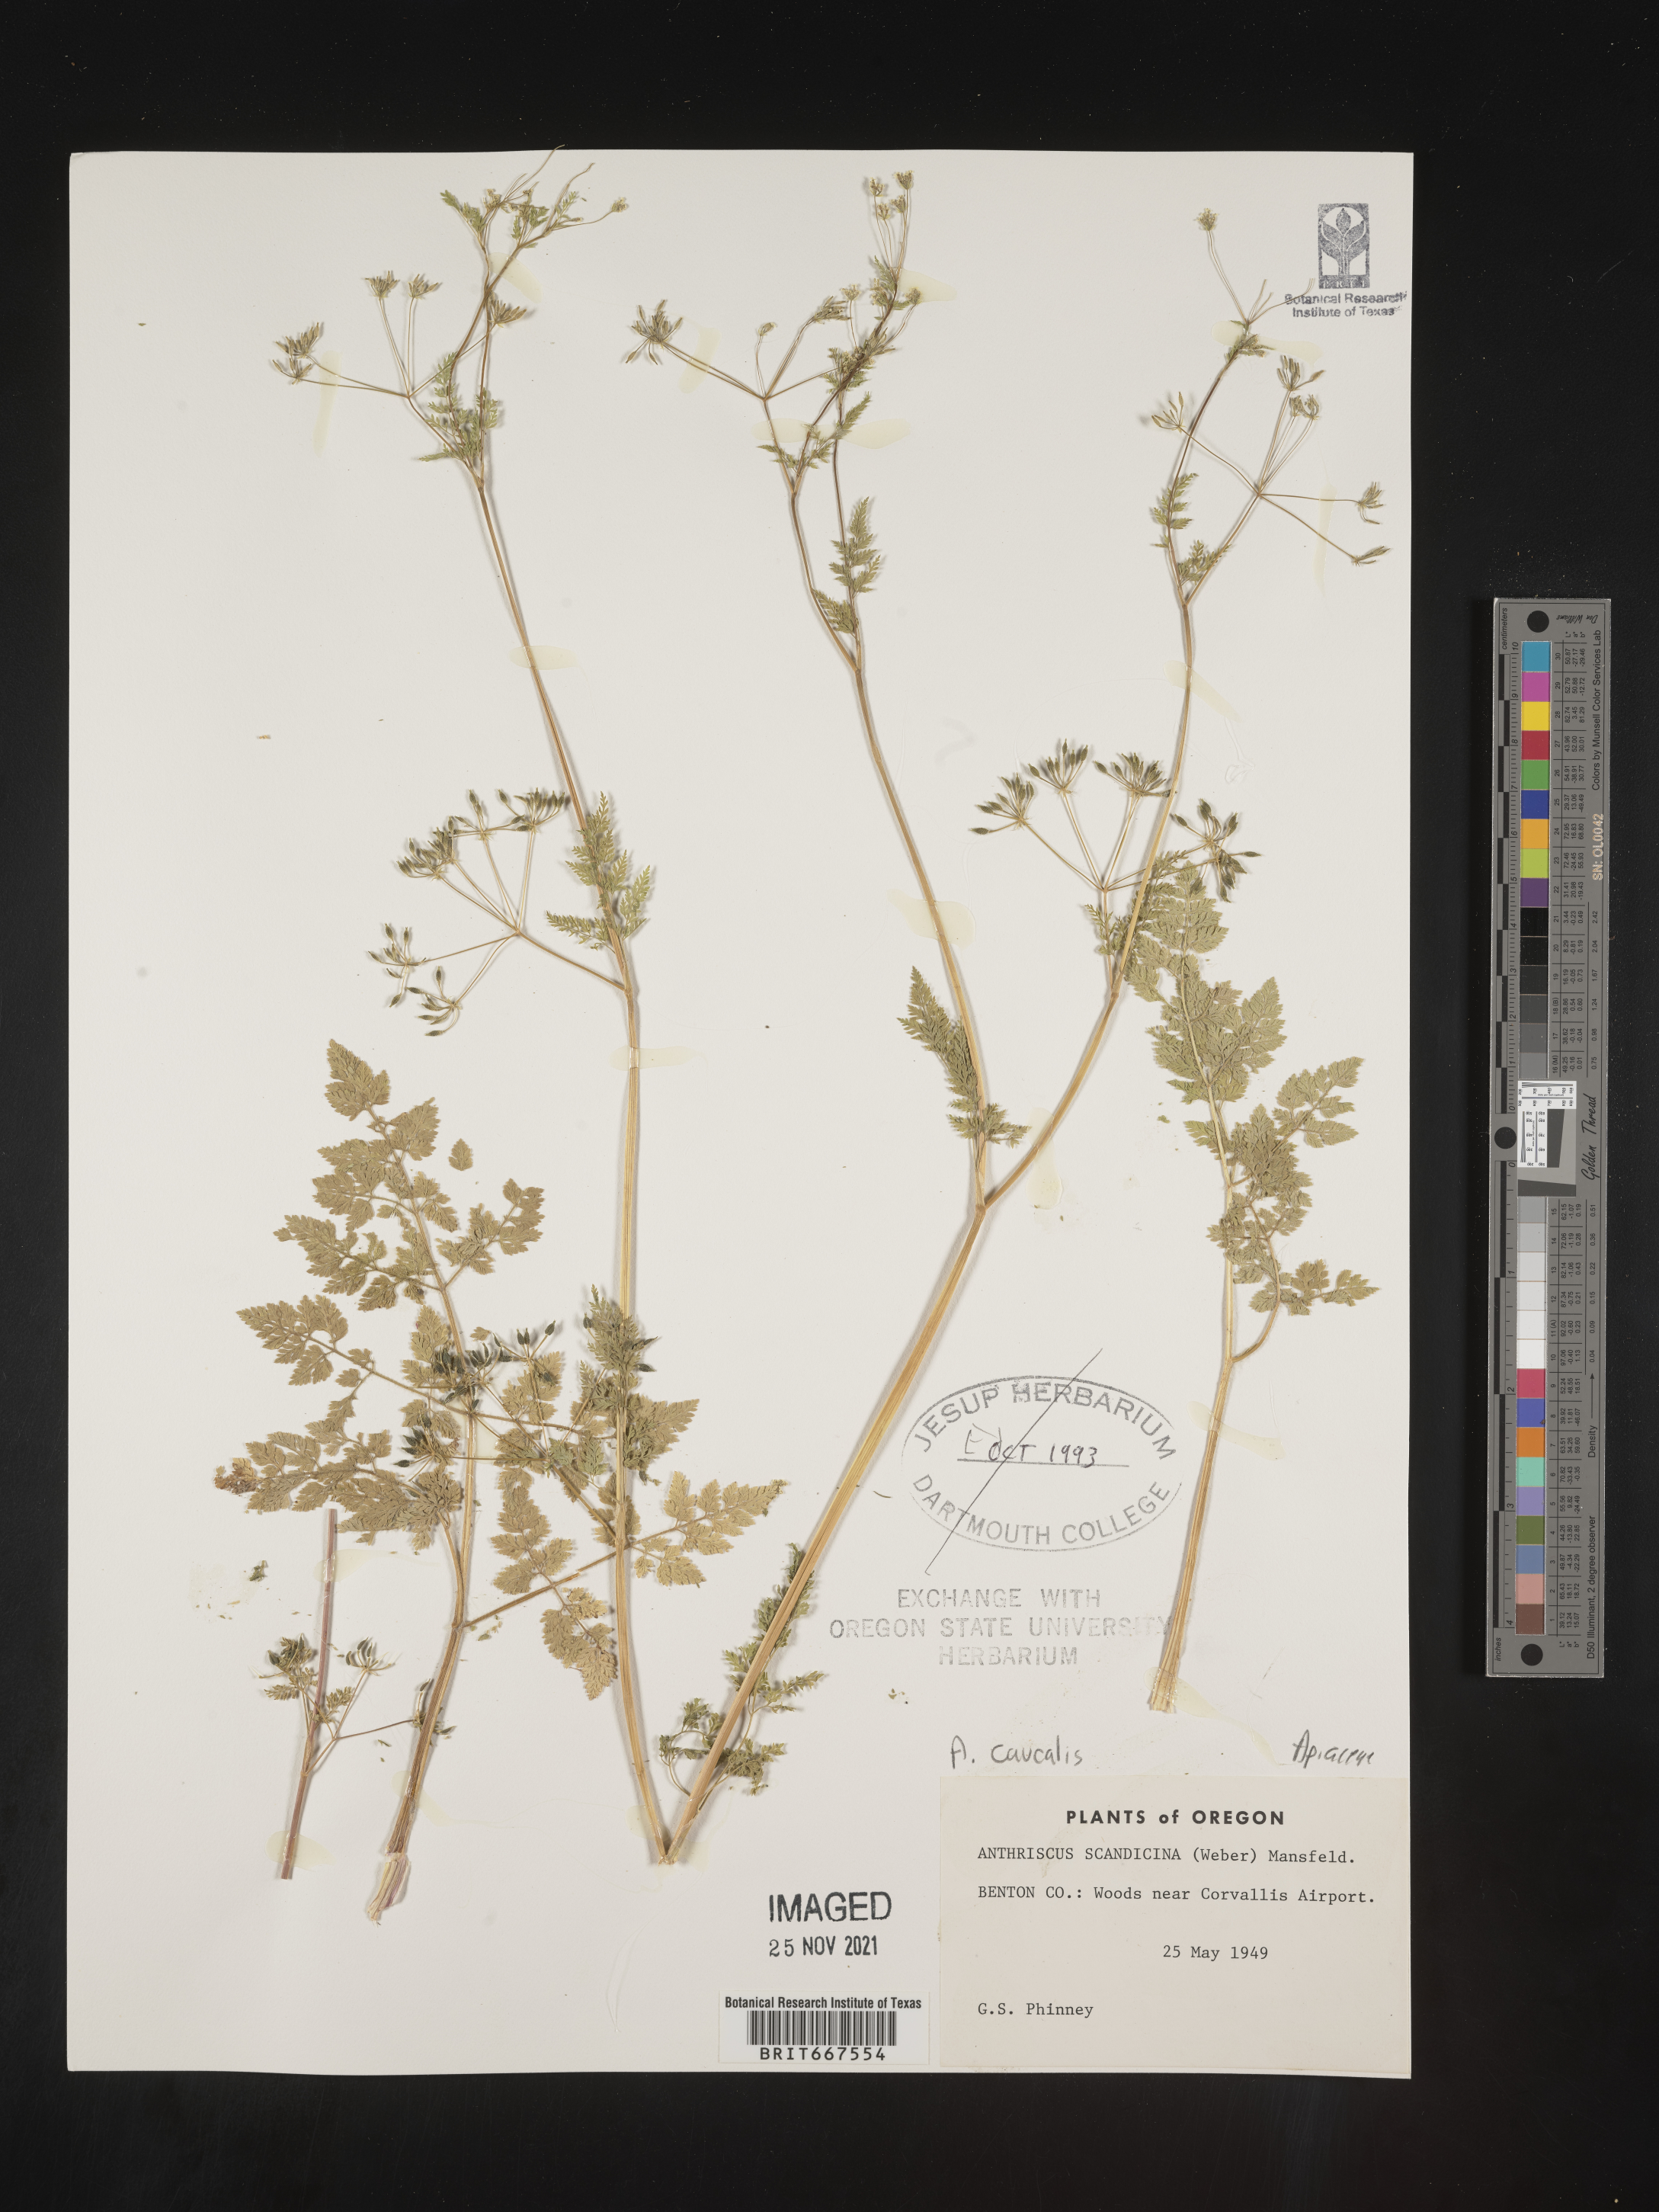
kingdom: Plantae
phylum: Tracheophyta
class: Magnoliopsida
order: Apiales
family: Apiaceae
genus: Anthriscus
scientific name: Anthriscus
